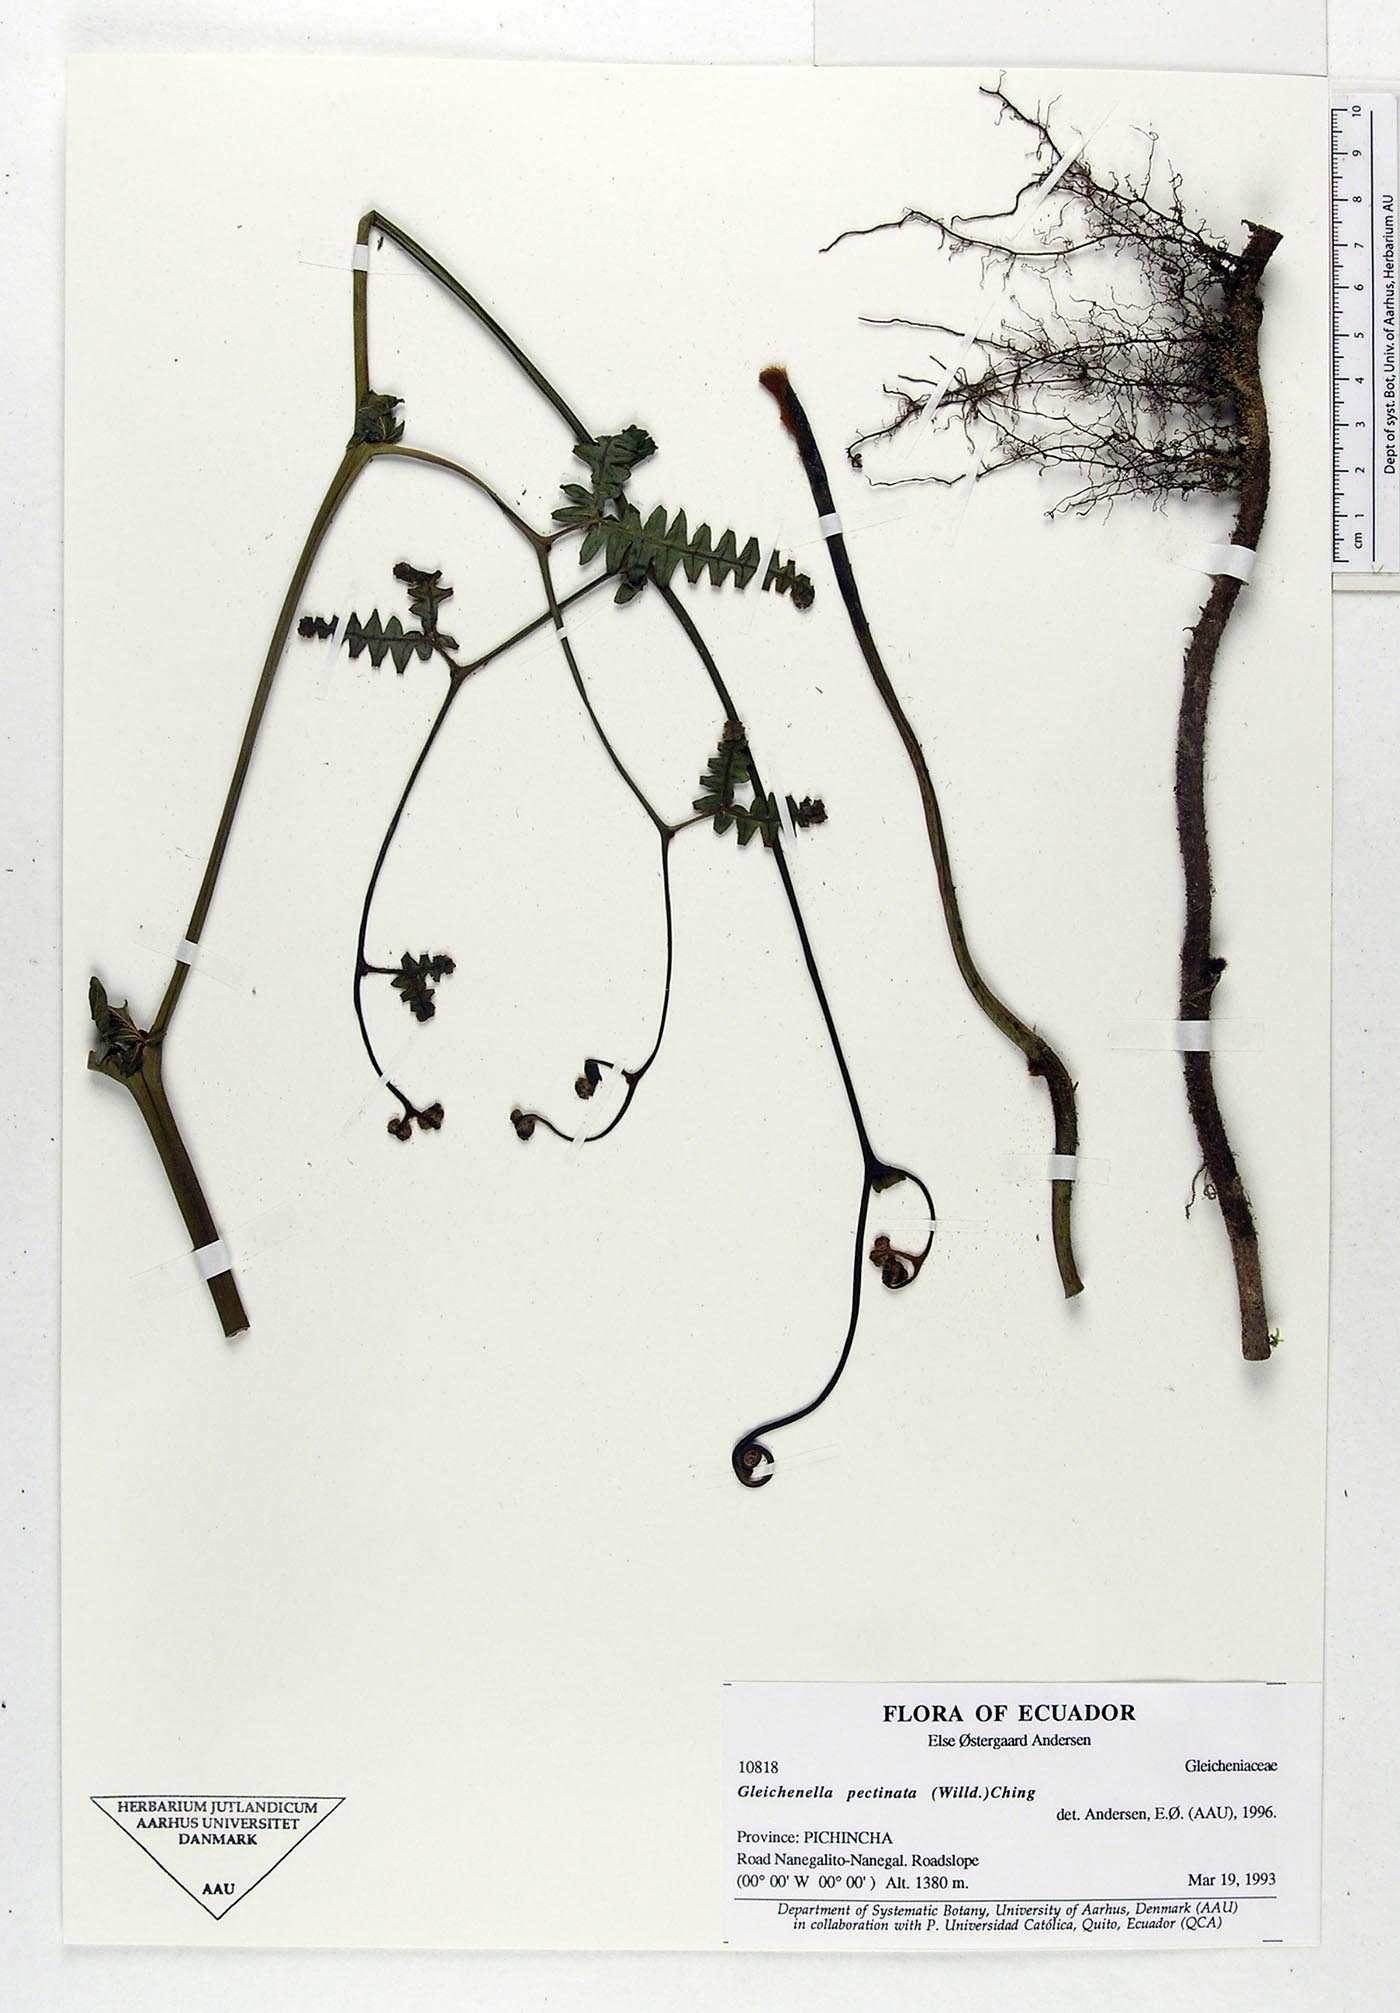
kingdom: Plantae
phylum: Tracheophyta
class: Polypodiopsida
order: Gleicheniales
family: Gleicheniaceae
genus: Gleichenella
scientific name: Gleichenella pectinata
